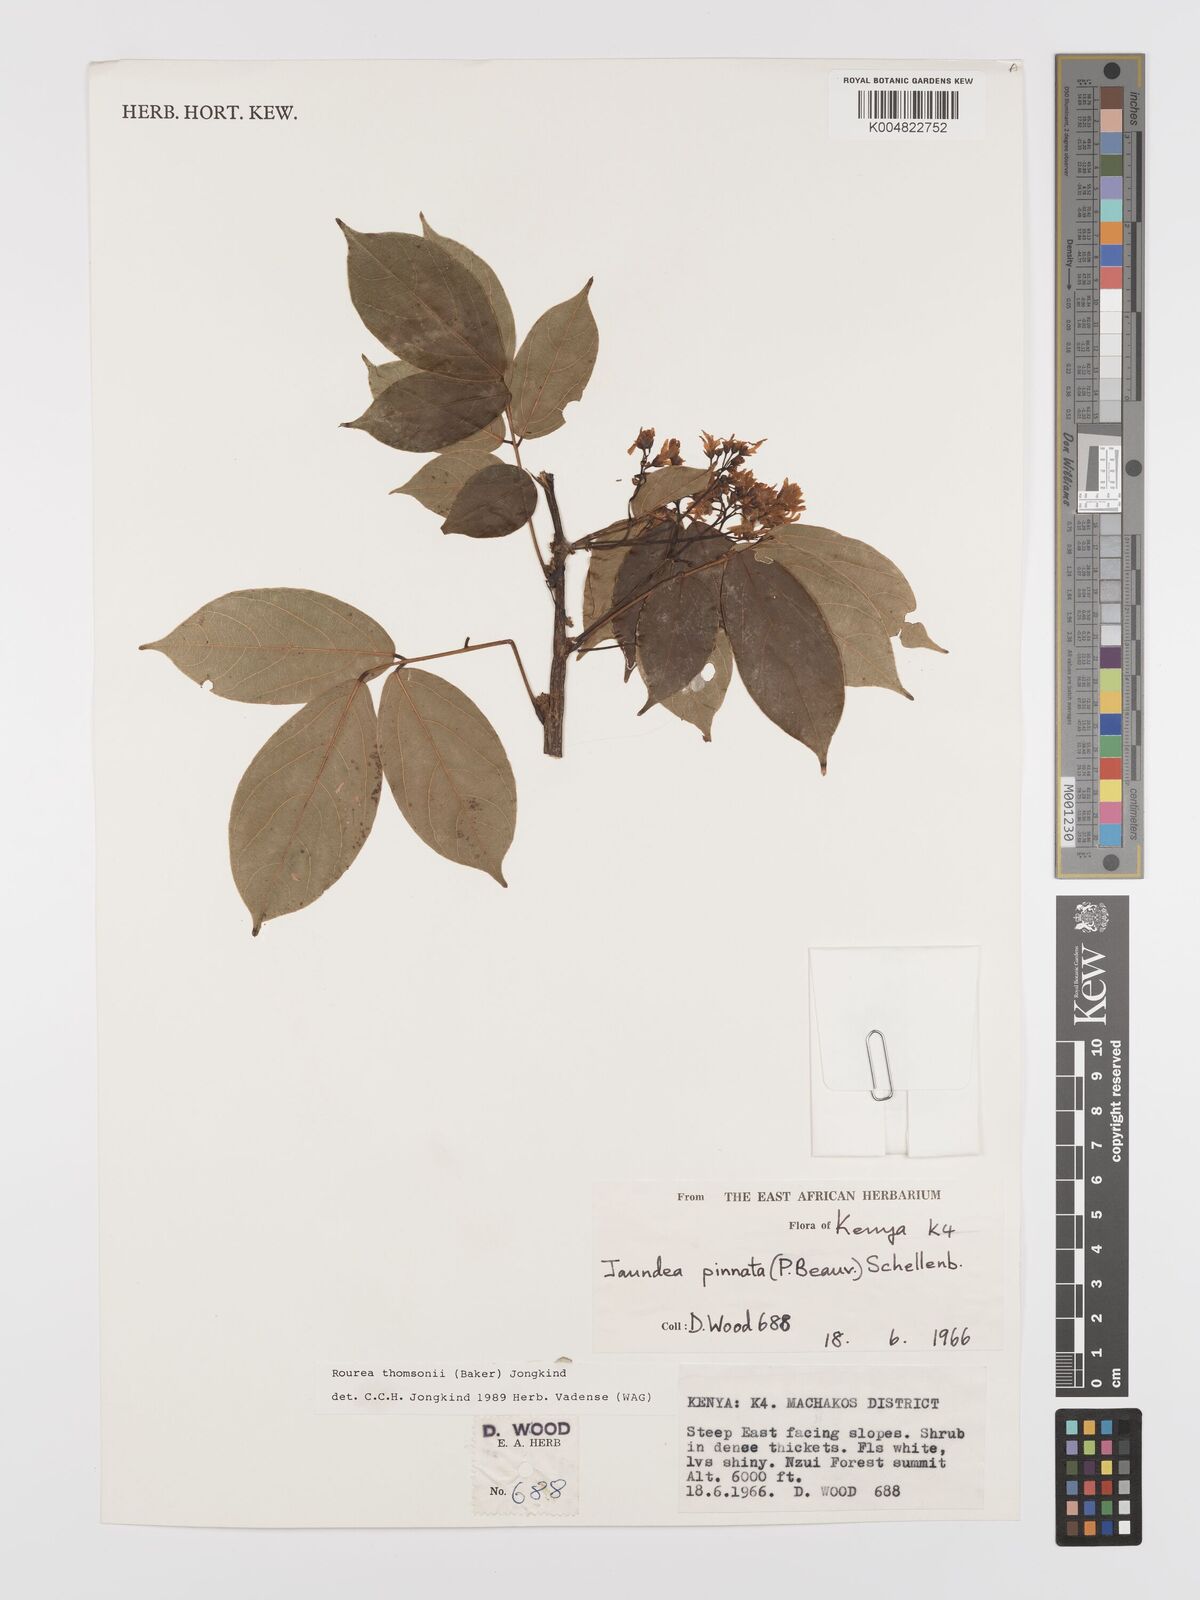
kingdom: Plantae
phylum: Tracheophyta
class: Magnoliopsida
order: Oxalidales
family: Connaraceae
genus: Rourea
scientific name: Rourea thomsonii
